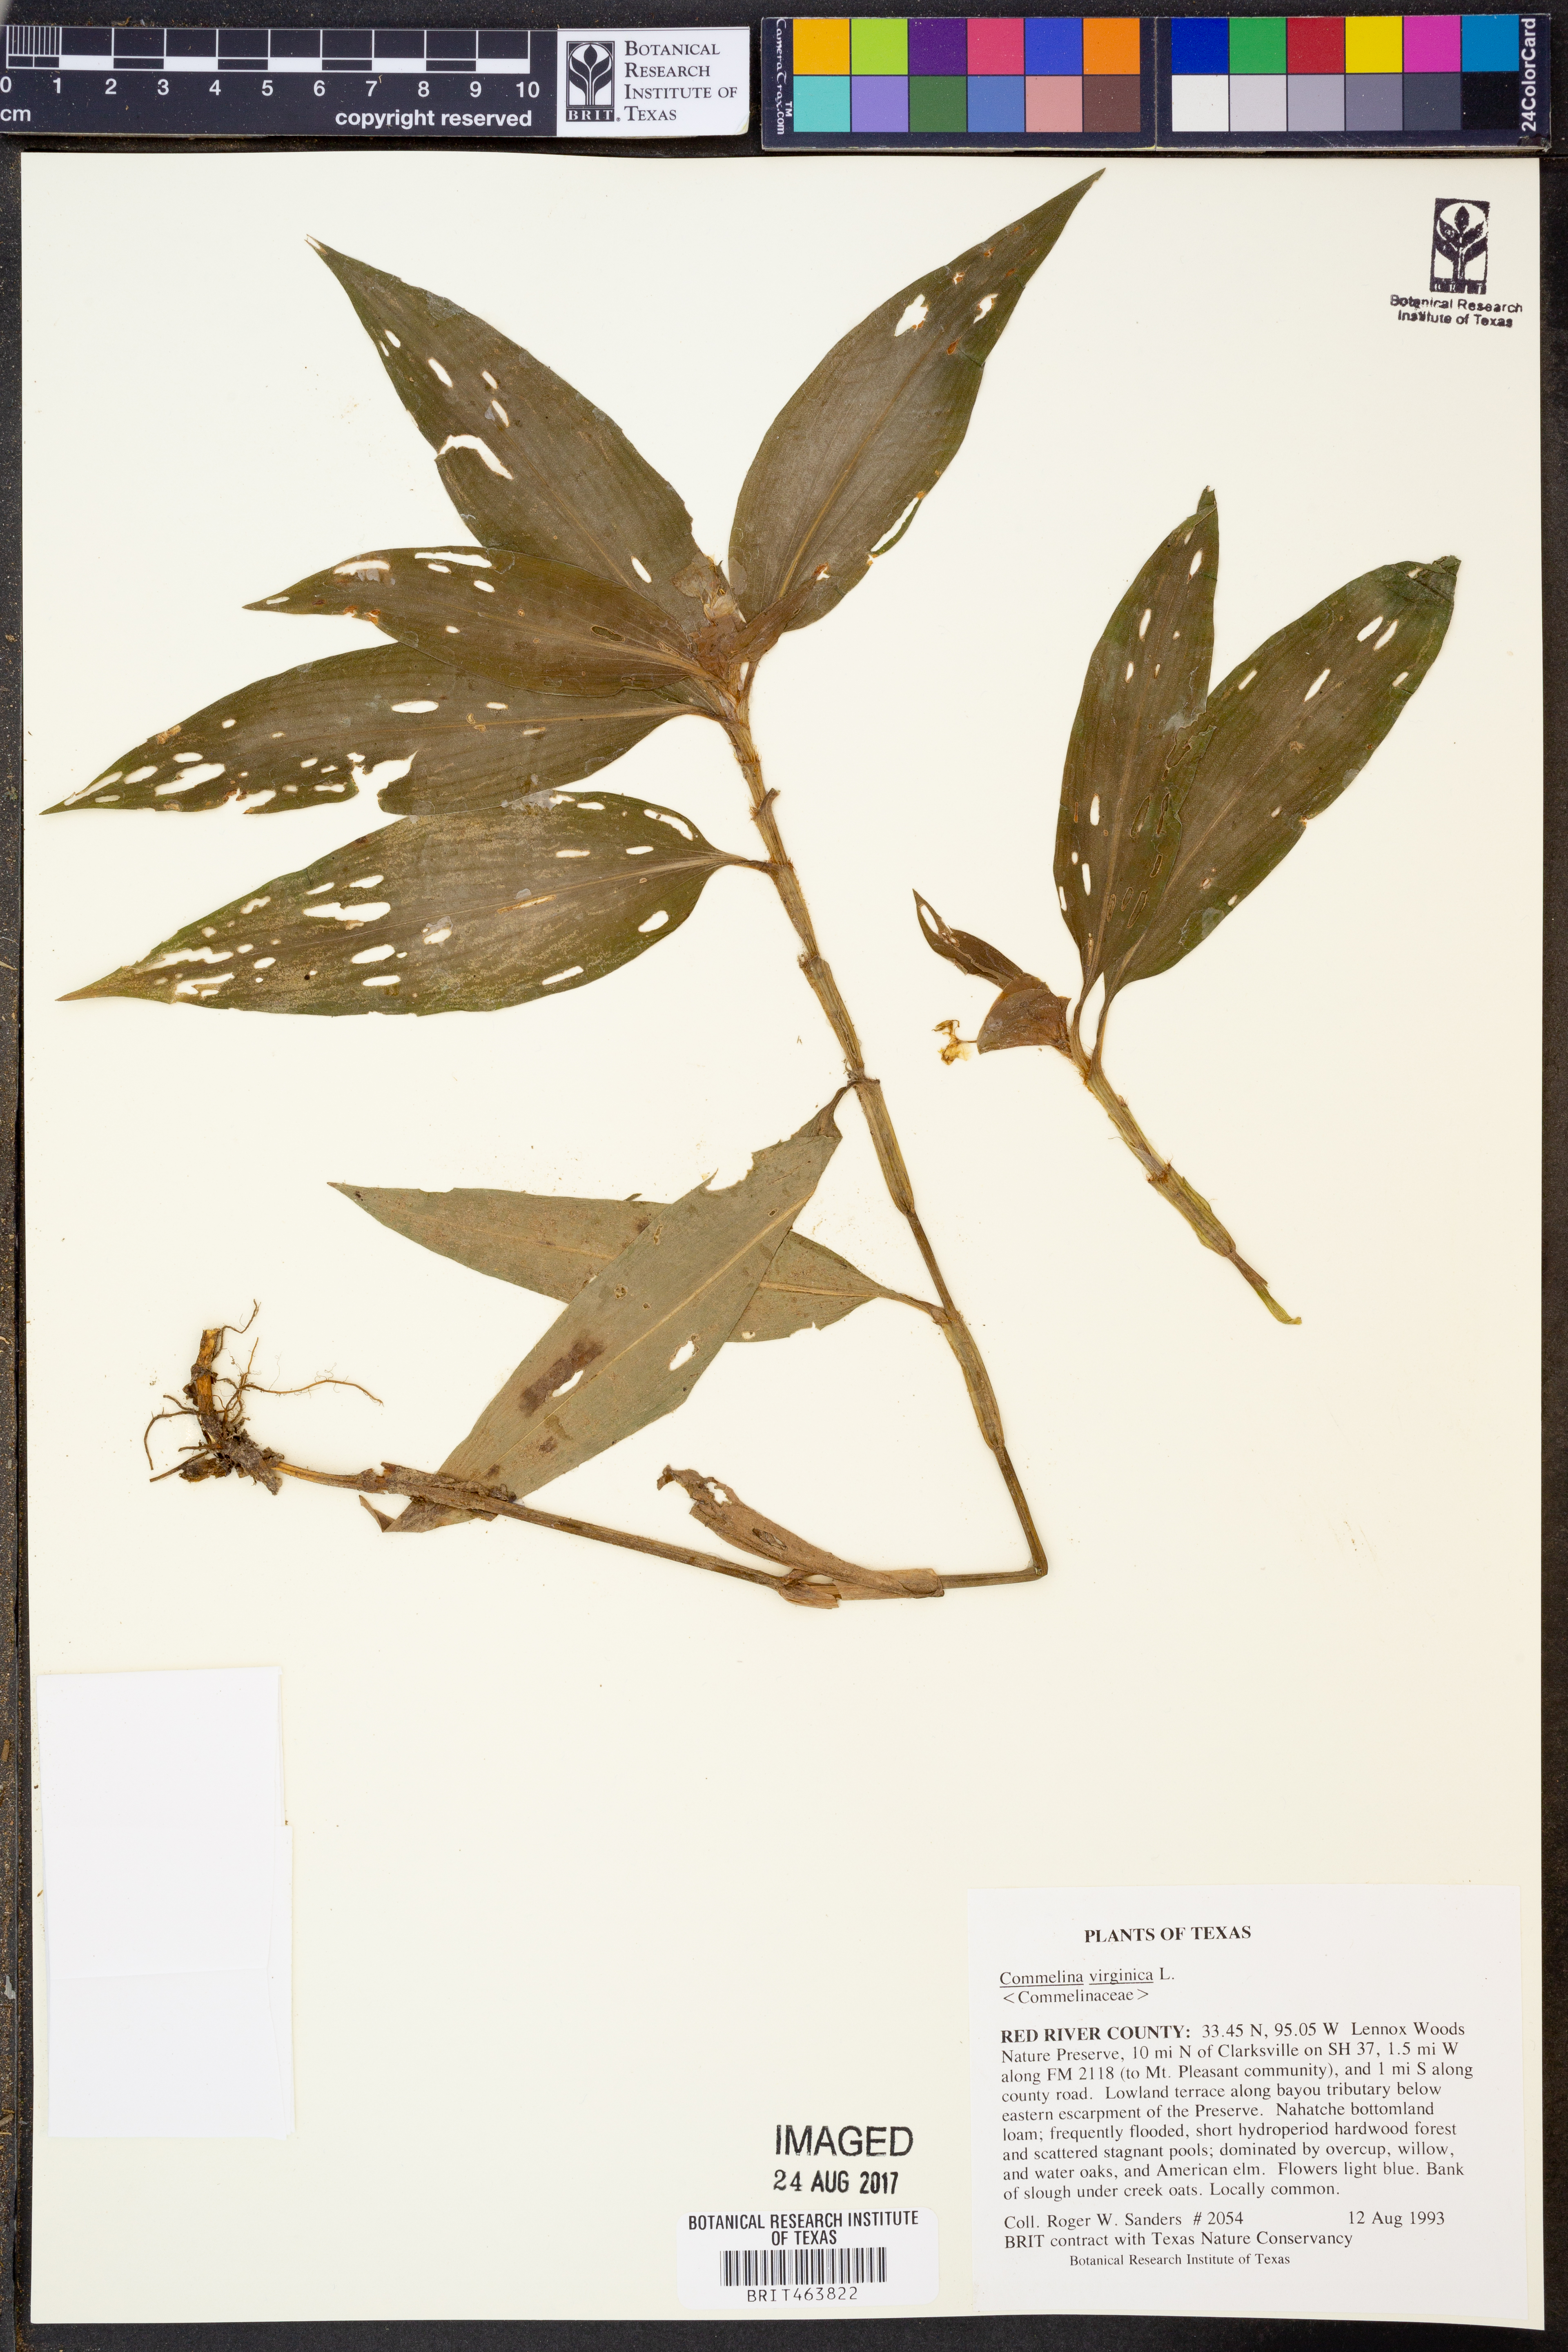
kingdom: Plantae
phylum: Tracheophyta
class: Liliopsida
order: Commelinales
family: Commelinaceae
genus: Commelina
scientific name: Commelina virginica
